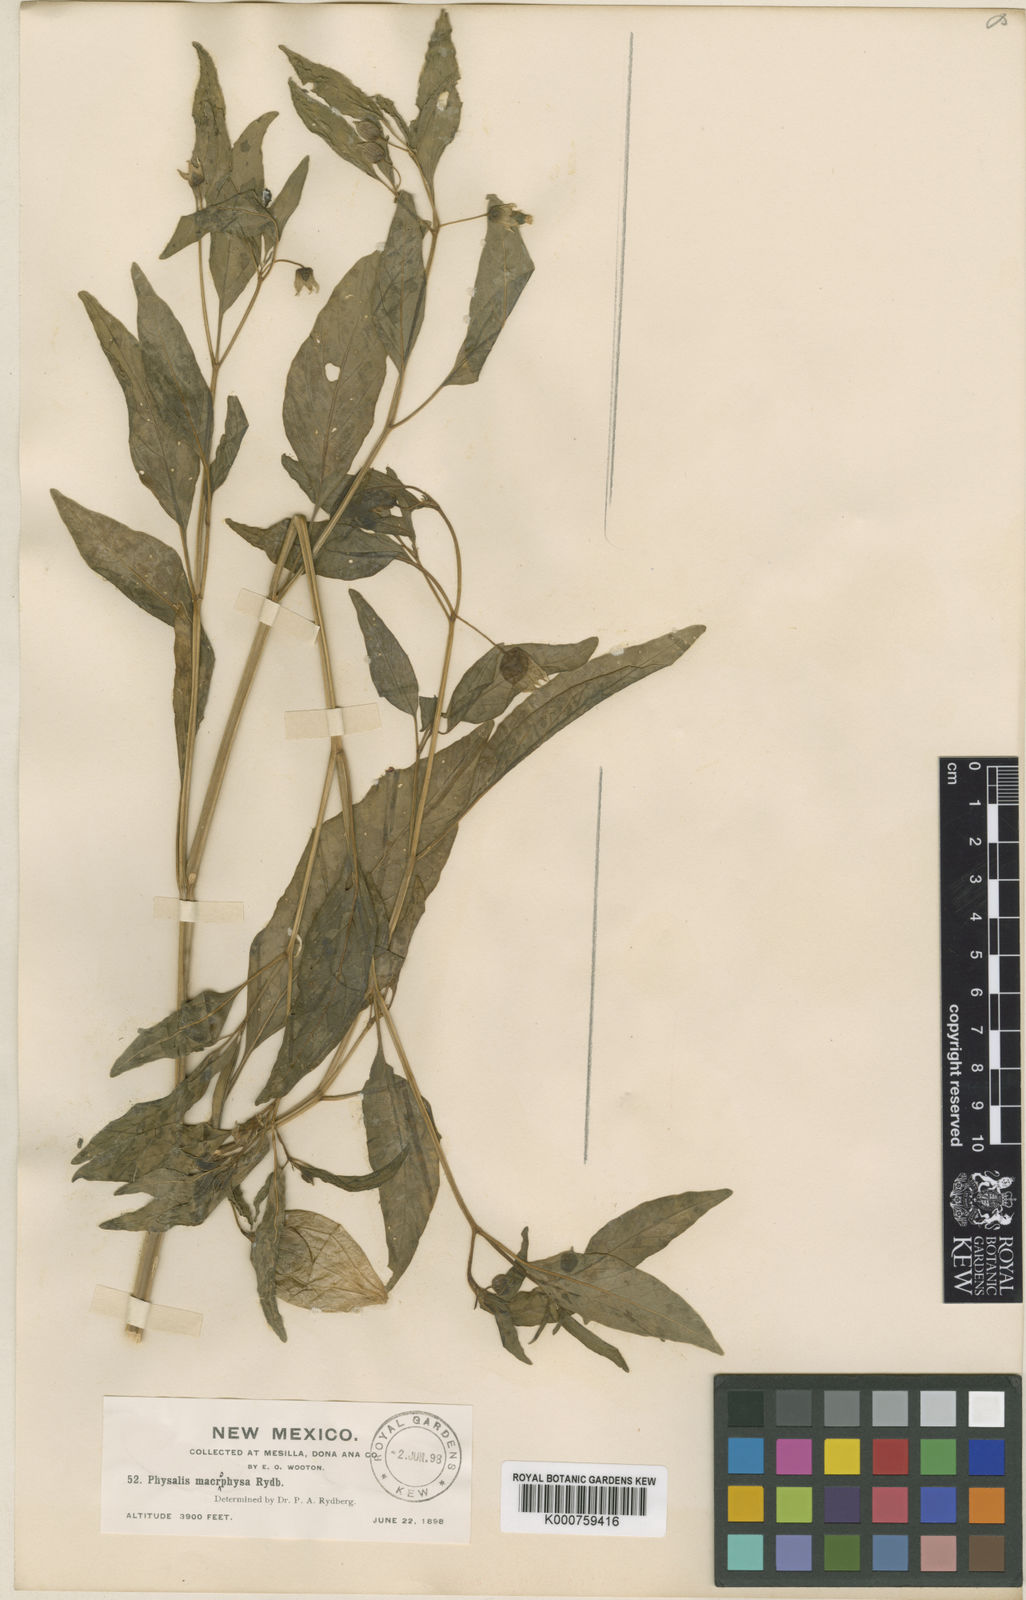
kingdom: Plantae
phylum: Tracheophyta
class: Magnoliopsida
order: Solanales
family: Solanaceae
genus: Physalis
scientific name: Physalis longifolia
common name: Common ground-cherry
